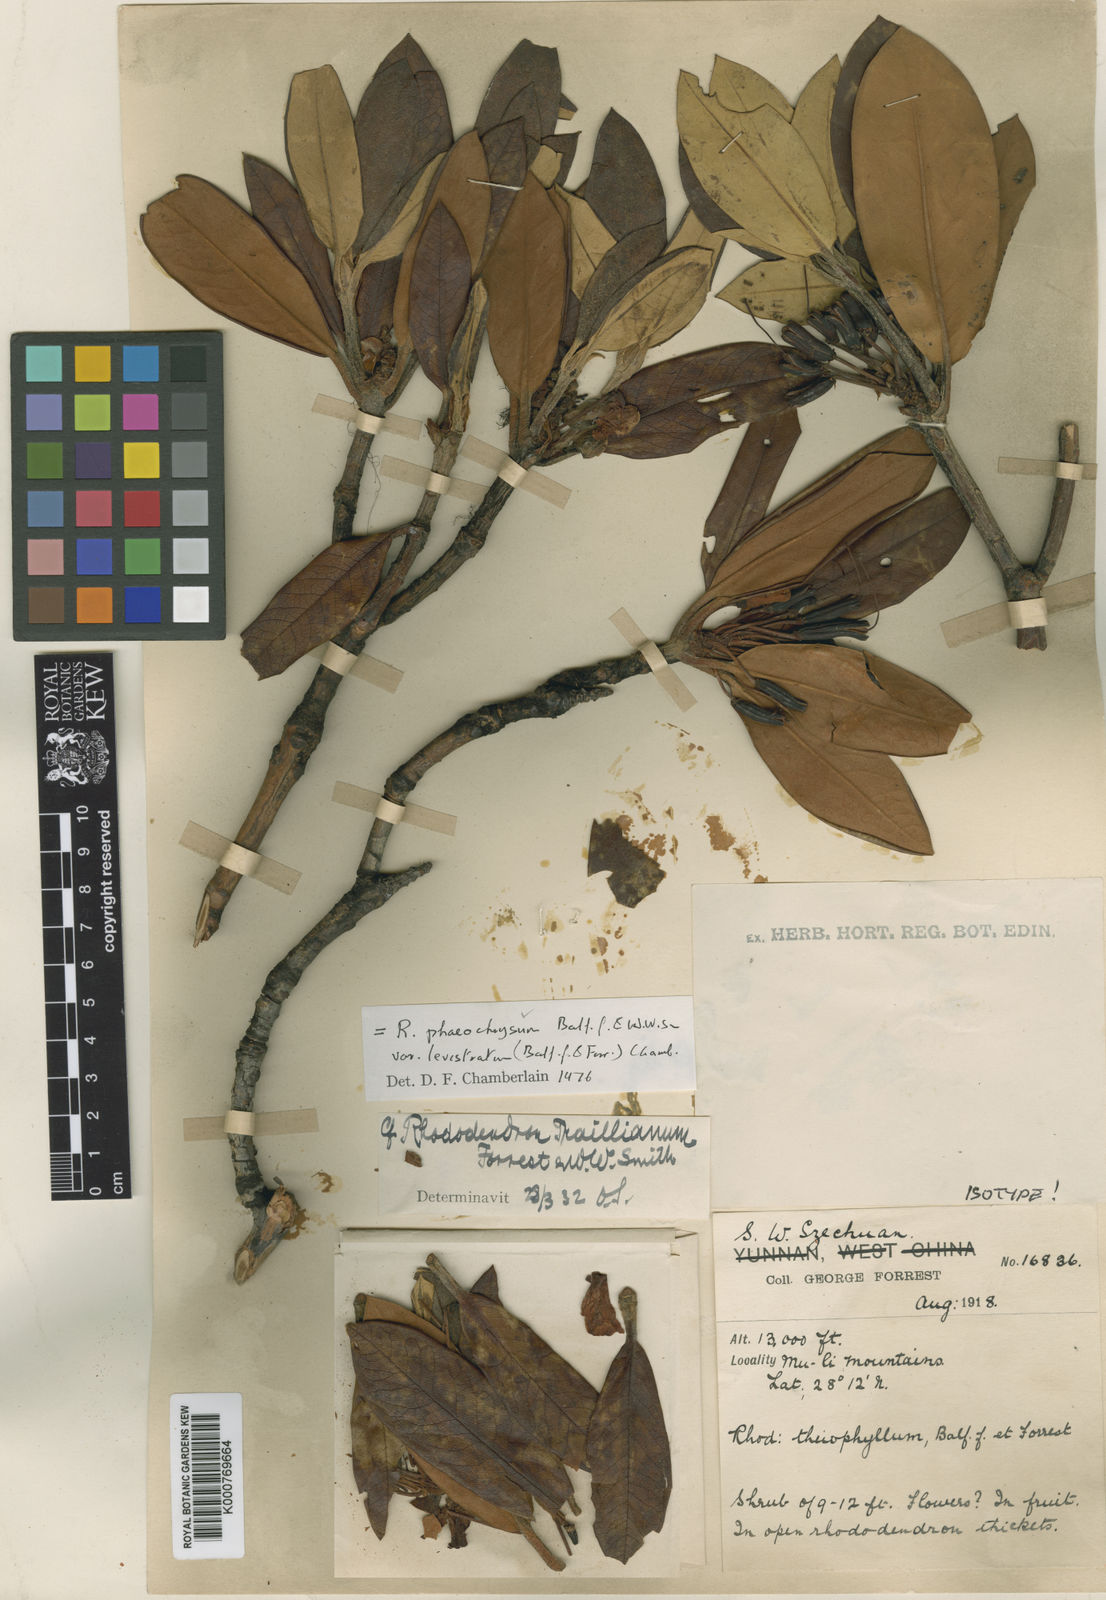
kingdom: Plantae
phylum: Tracheophyta
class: Magnoliopsida
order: Ericales
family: Ericaceae
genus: Rhododendron
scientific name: Rhododendron phaeochrysum
